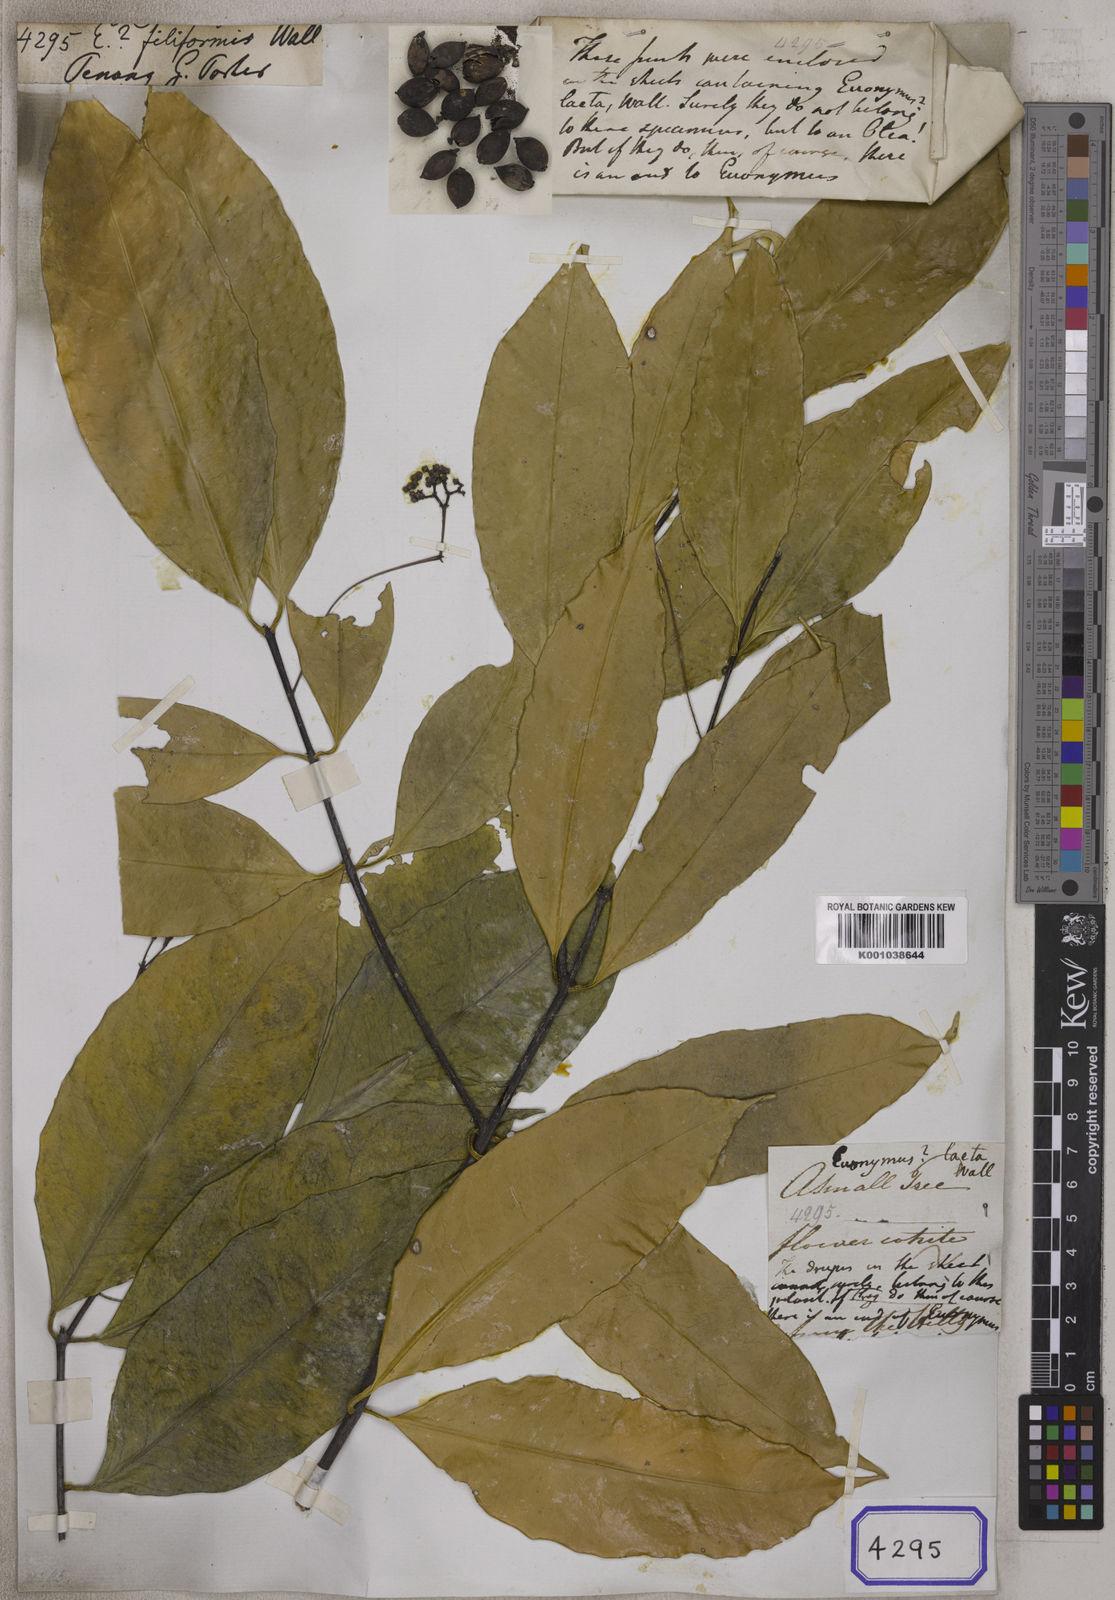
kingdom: Plantae
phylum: Tracheophyta
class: Magnoliopsida
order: Celastrales
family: Celastraceae
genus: Microtropis
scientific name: Microtropis bivalvis
